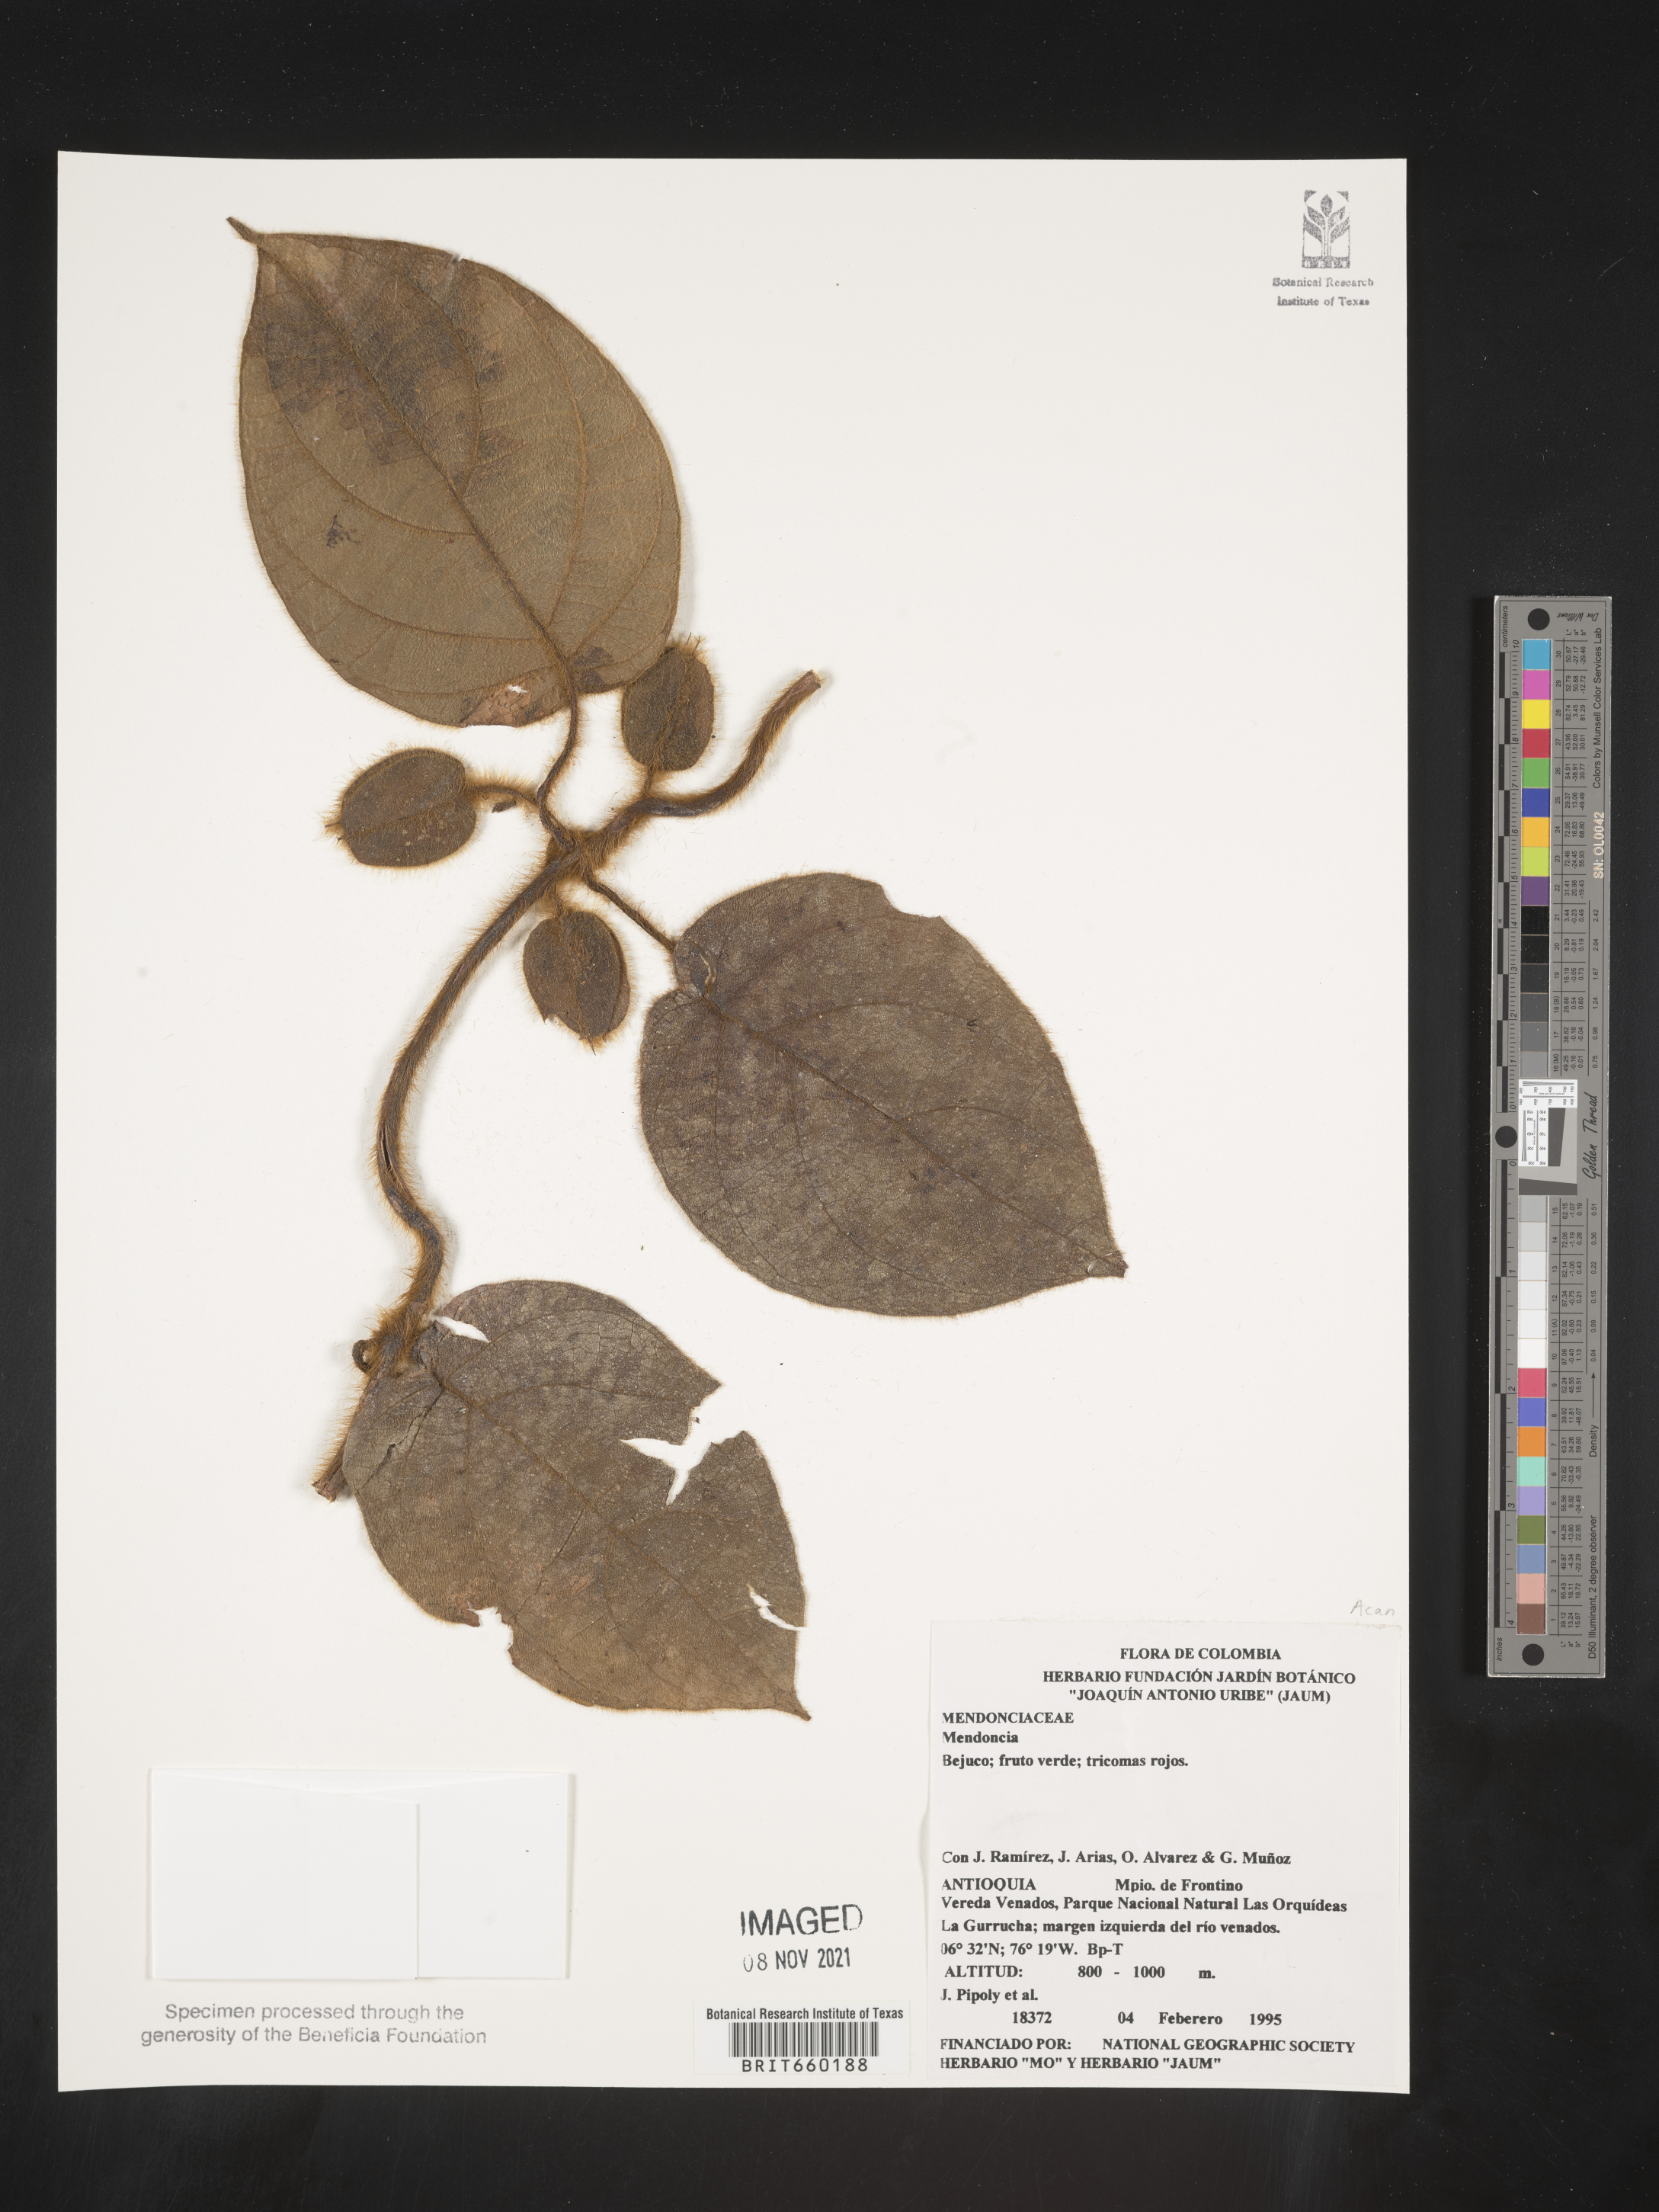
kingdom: Plantae
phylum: Tracheophyta
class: Magnoliopsida
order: Lamiales
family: Acanthaceae
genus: Mendoncia
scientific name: Mendoncia
